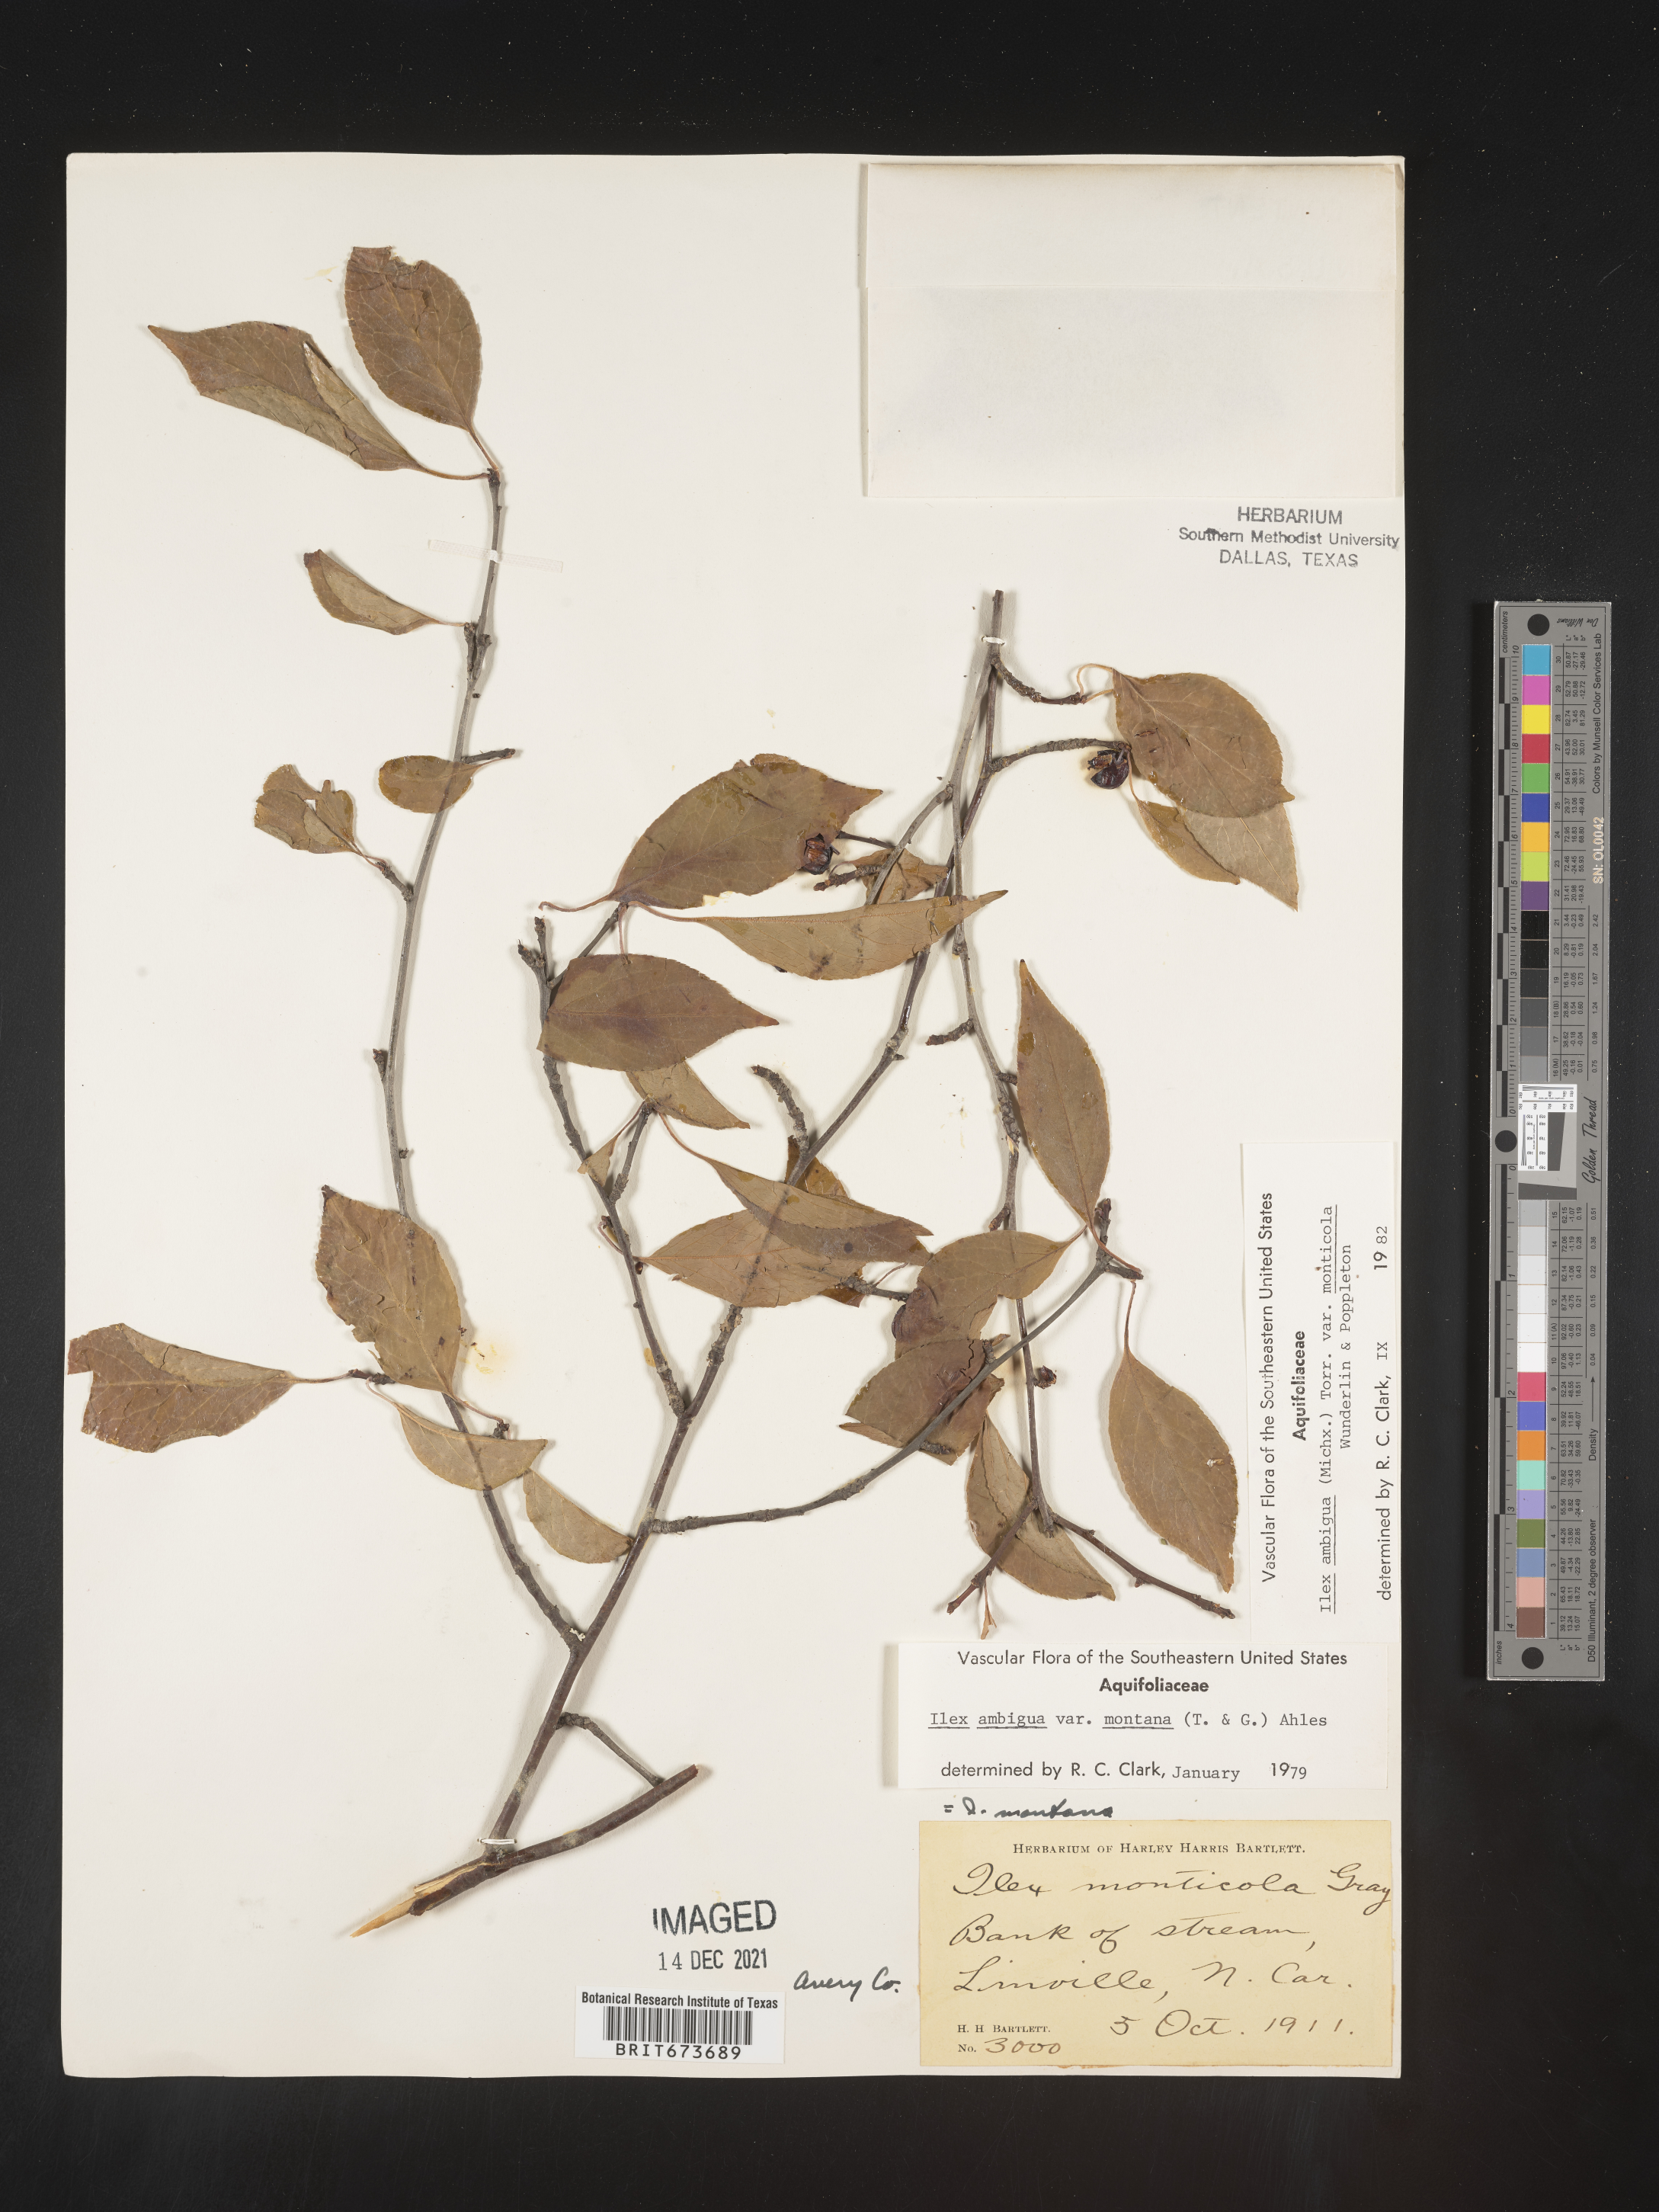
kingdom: Plantae
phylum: Tracheophyta
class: Magnoliopsida
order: Aquifoliales
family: Aquifoliaceae
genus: Ilex
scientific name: Ilex ambigua
